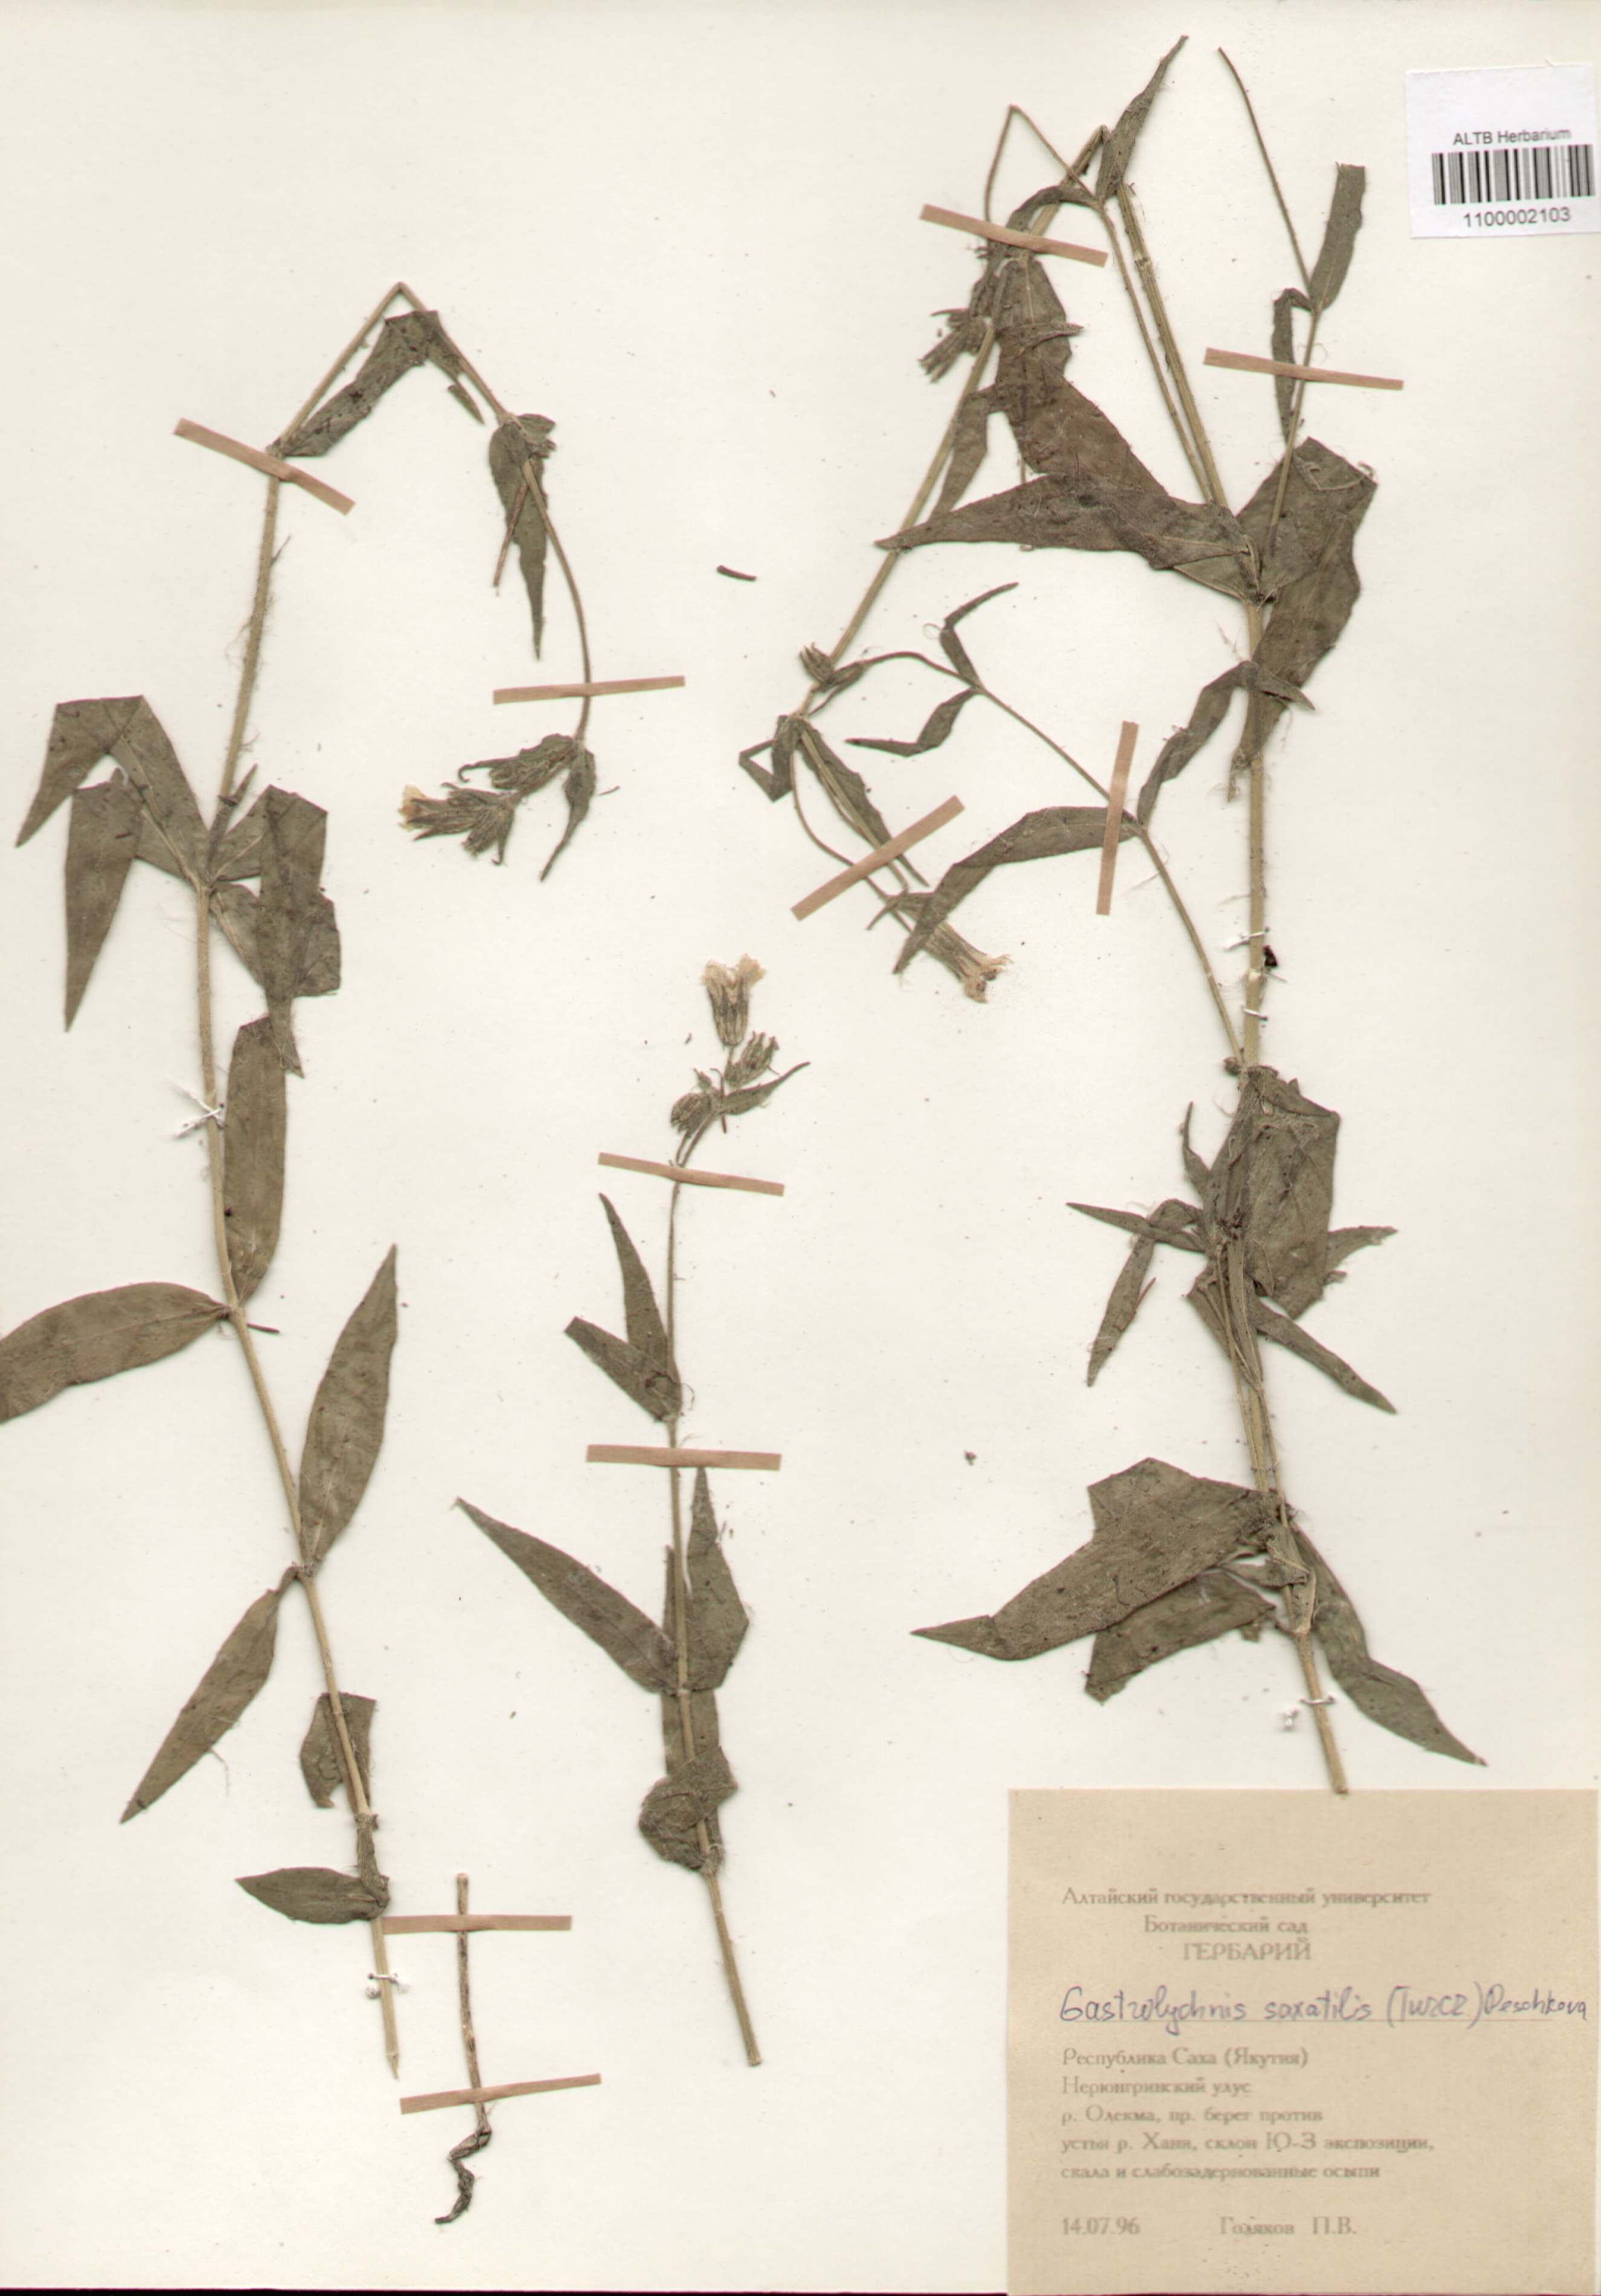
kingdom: Plantae
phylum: Tracheophyta
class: Magnoliopsida
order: Caryophyllales
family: Caryophyllaceae
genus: Silene
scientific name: Silene tolmatchevii
